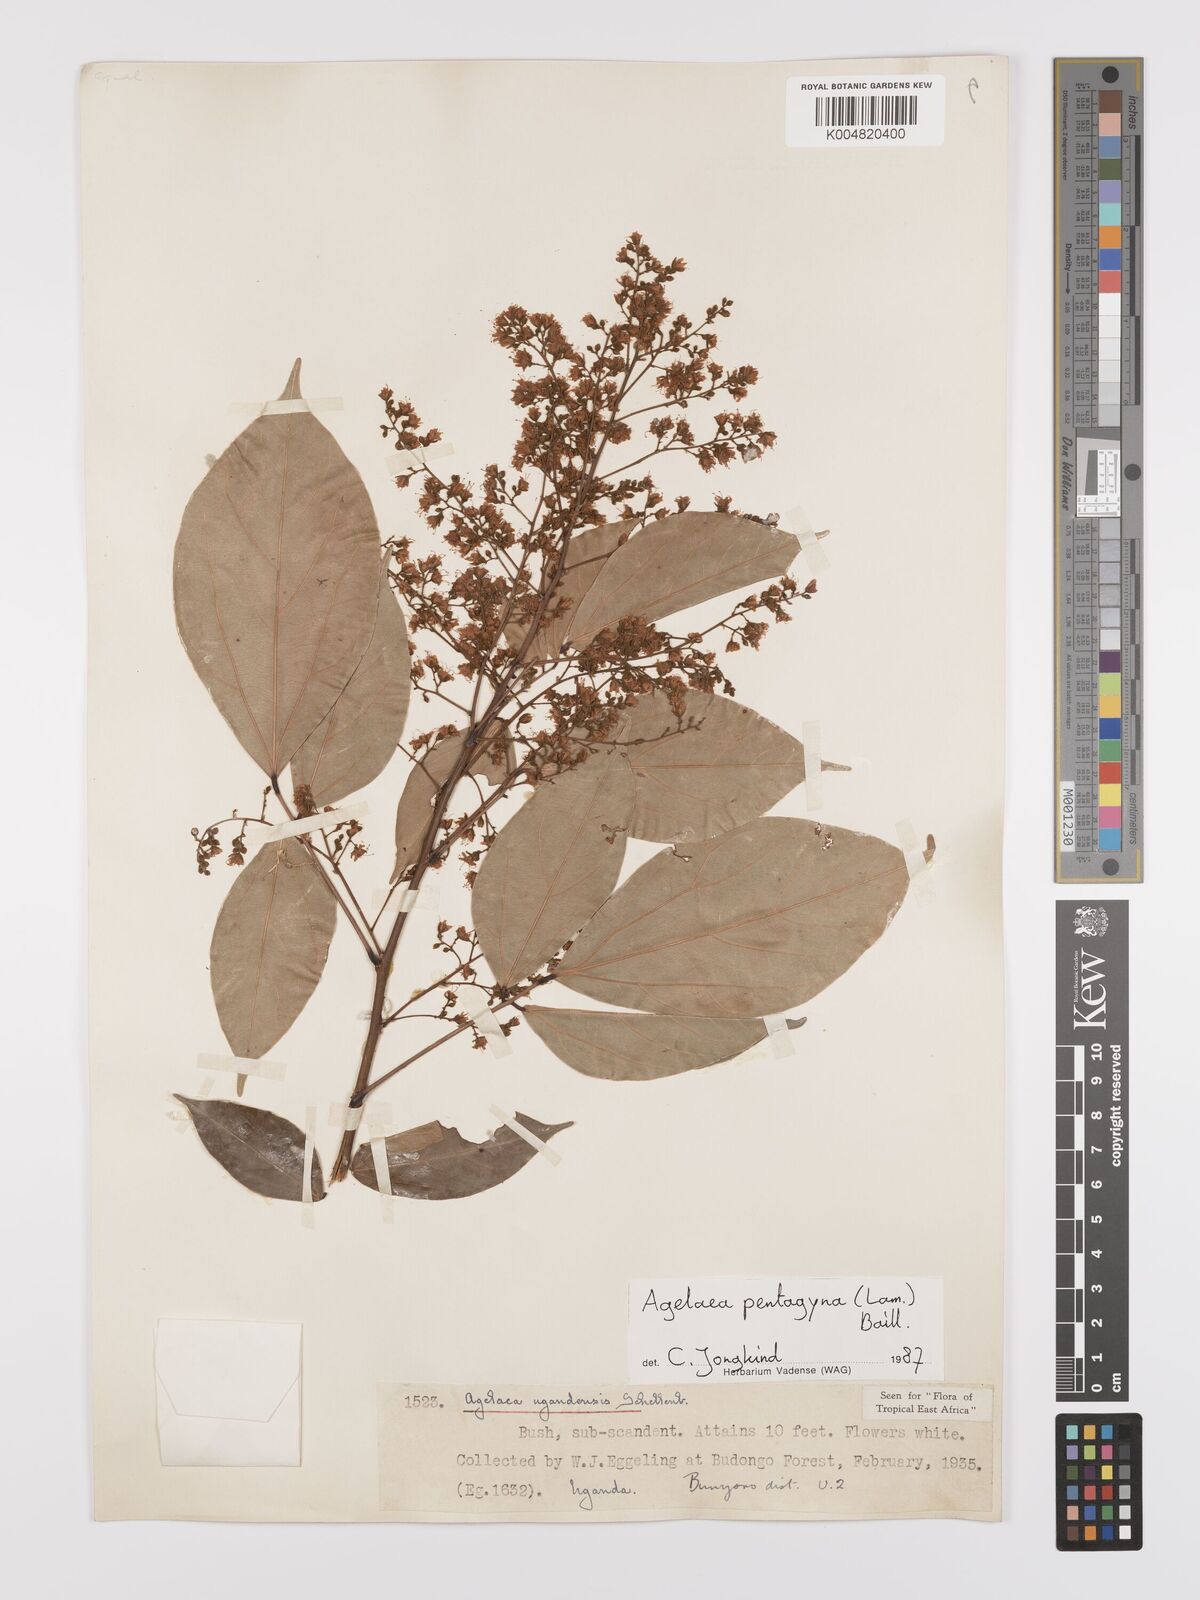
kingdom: Plantae
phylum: Tracheophyta
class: Magnoliopsida
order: Oxalidales
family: Connaraceae
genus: Agelaea
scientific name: Agelaea pentagyna
